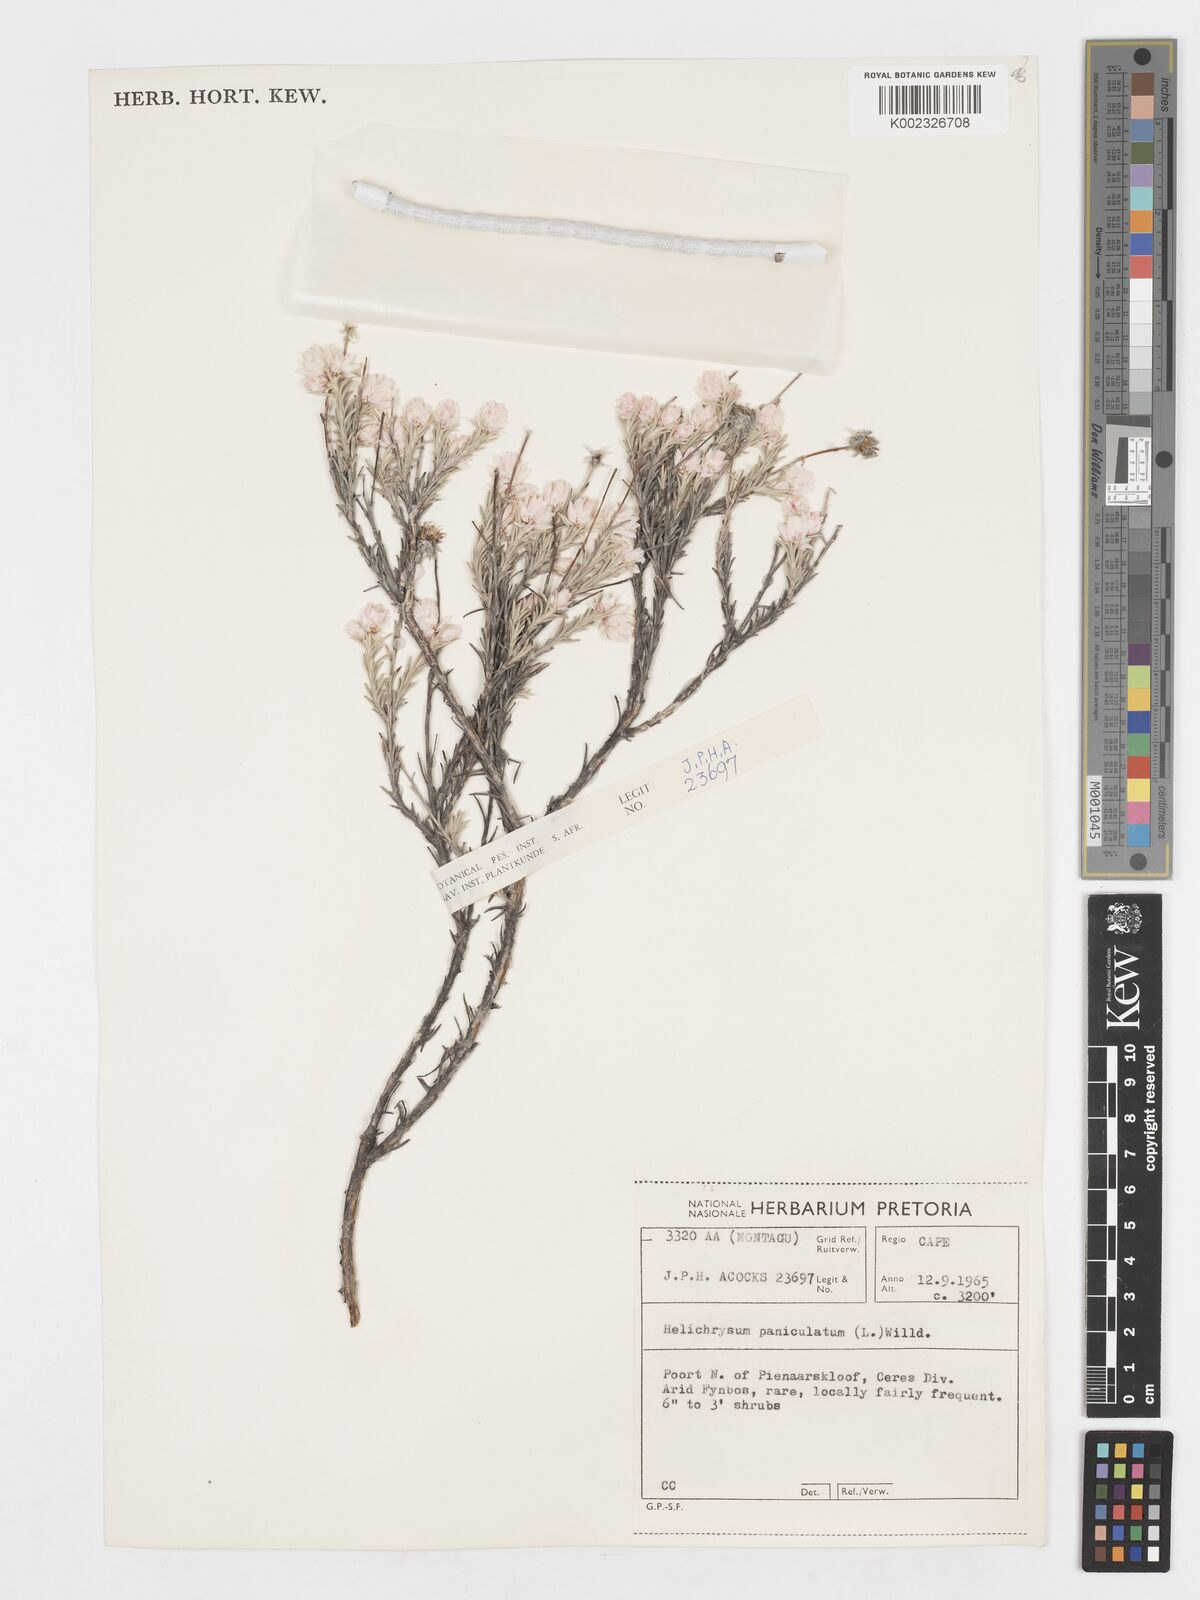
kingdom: Plantae
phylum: Tracheophyta
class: Magnoliopsida
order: Asterales
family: Asteraceae
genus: Achyranthemum
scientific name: Achyranthemum paniculatum
